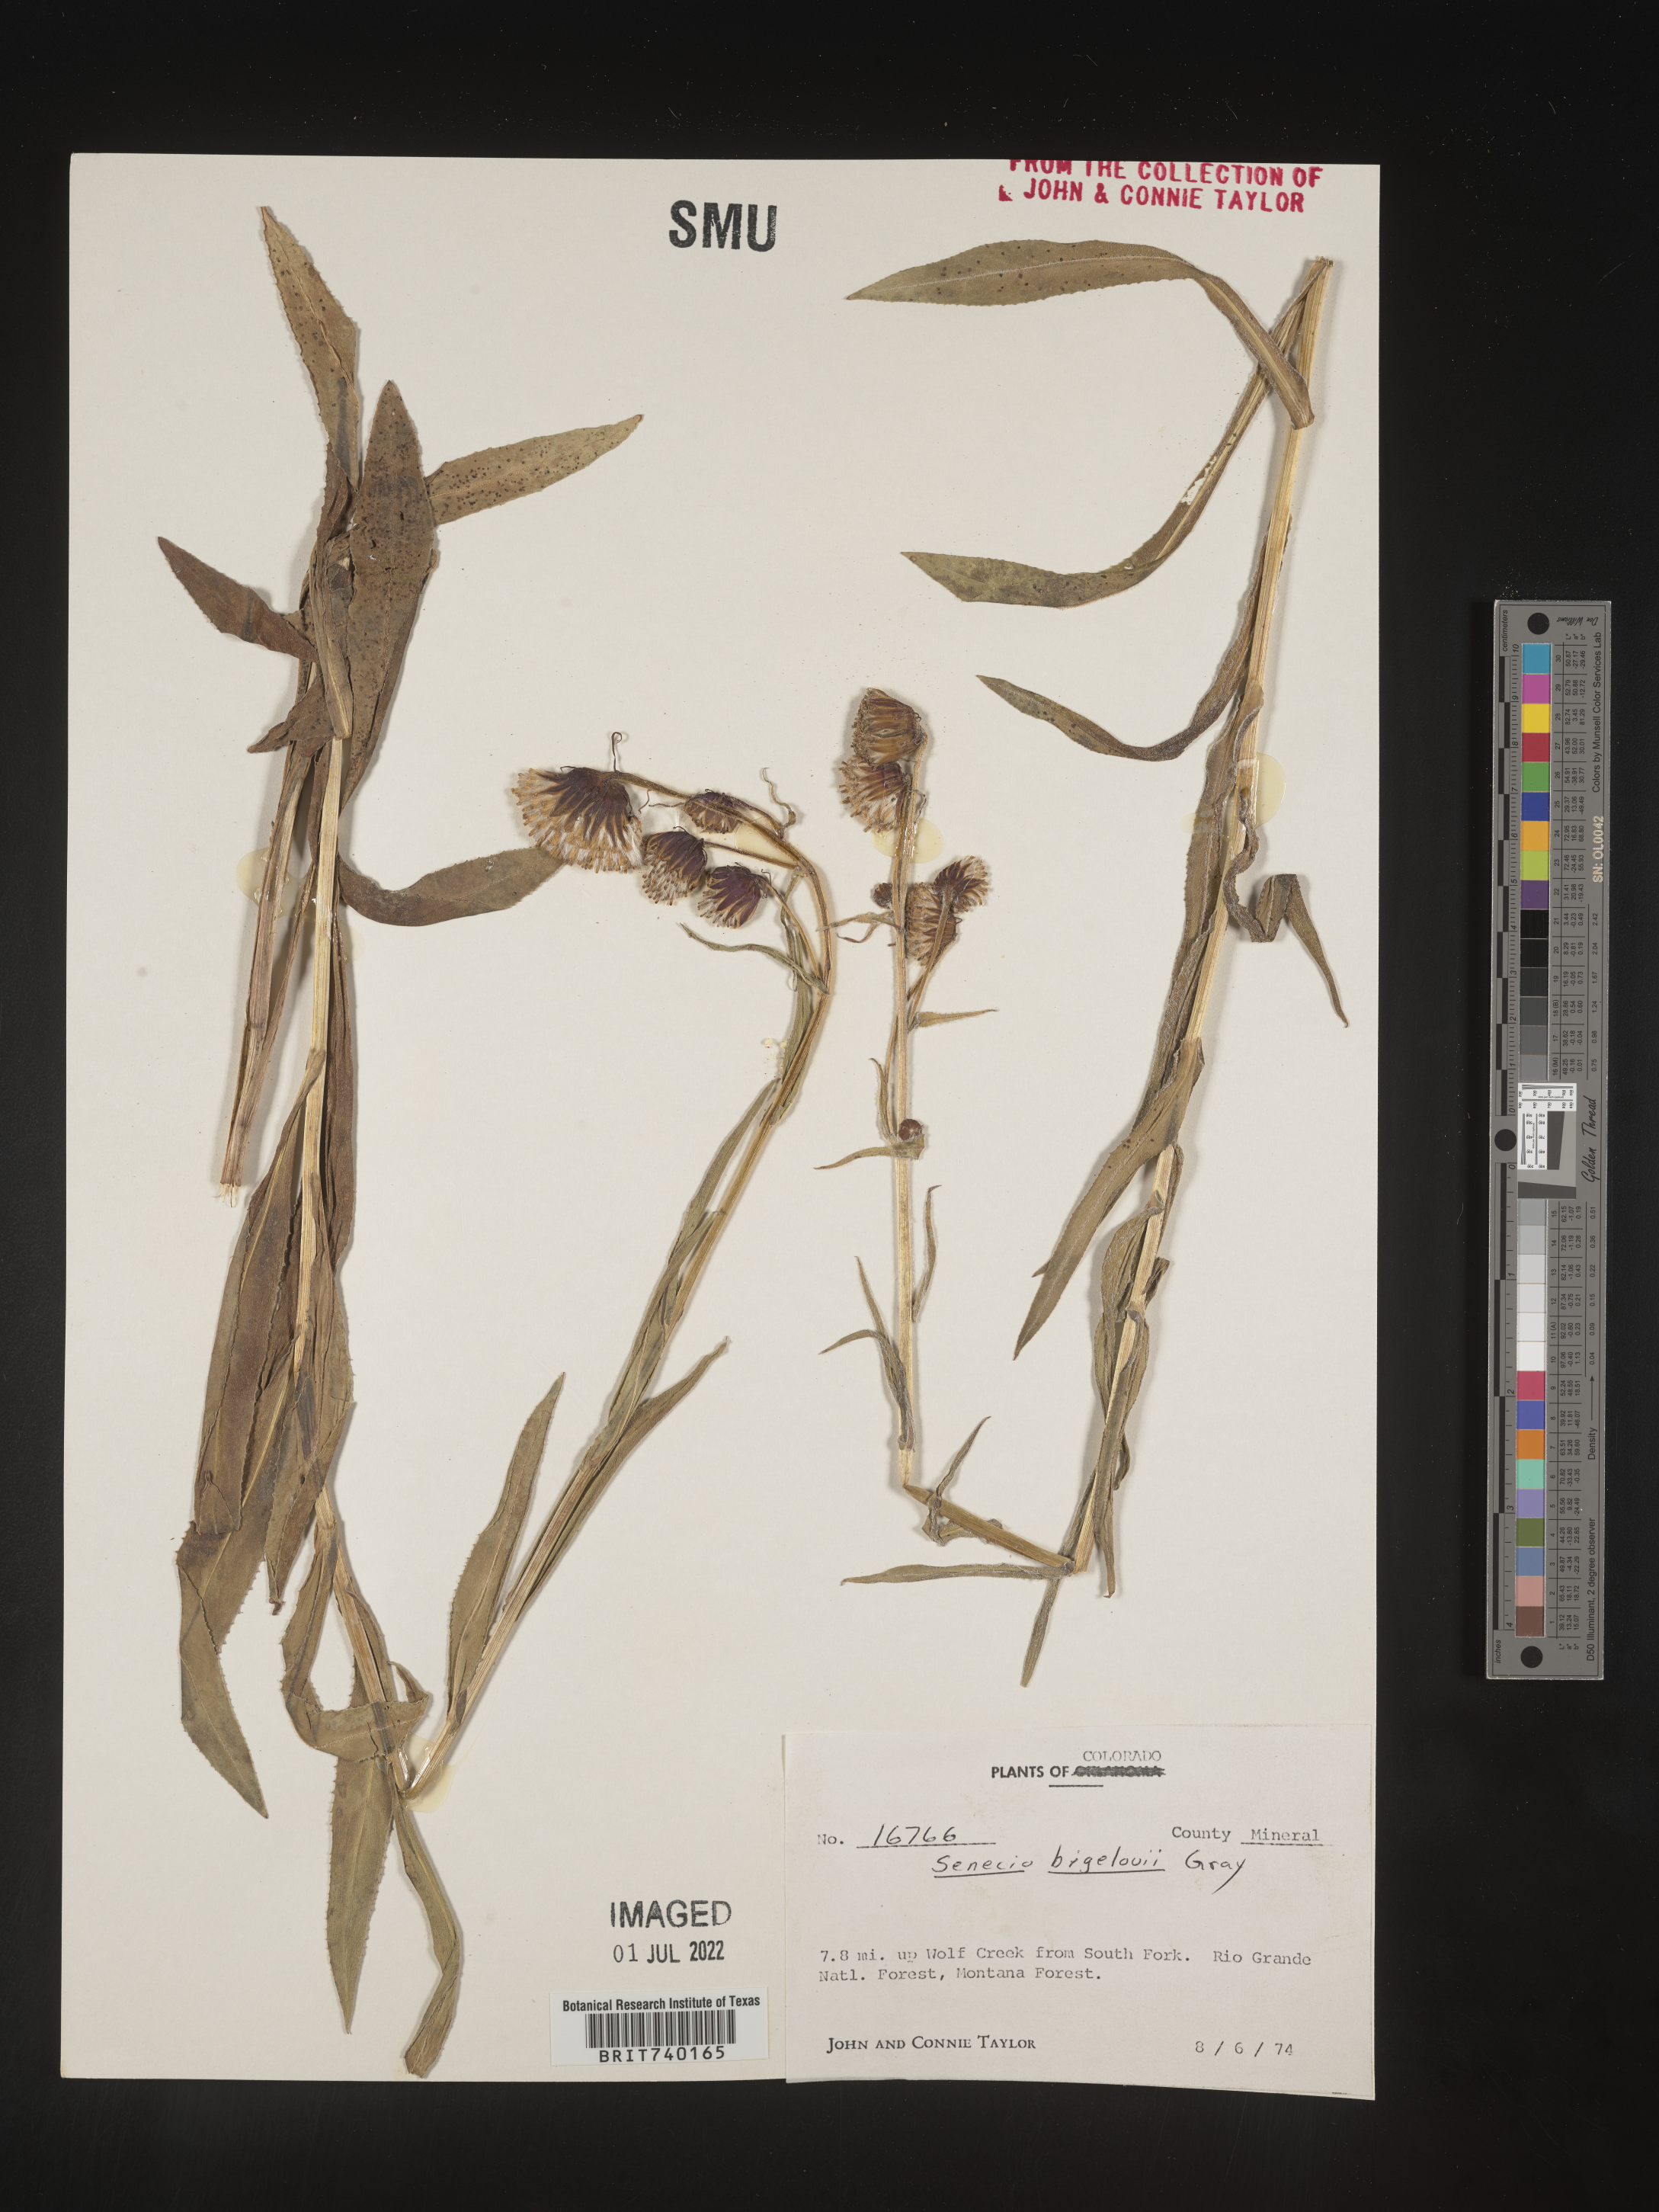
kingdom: Plantae
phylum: Tracheophyta
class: Magnoliopsida
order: Asterales
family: Asteraceae
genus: Senecio
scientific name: Senecio bigelovii
